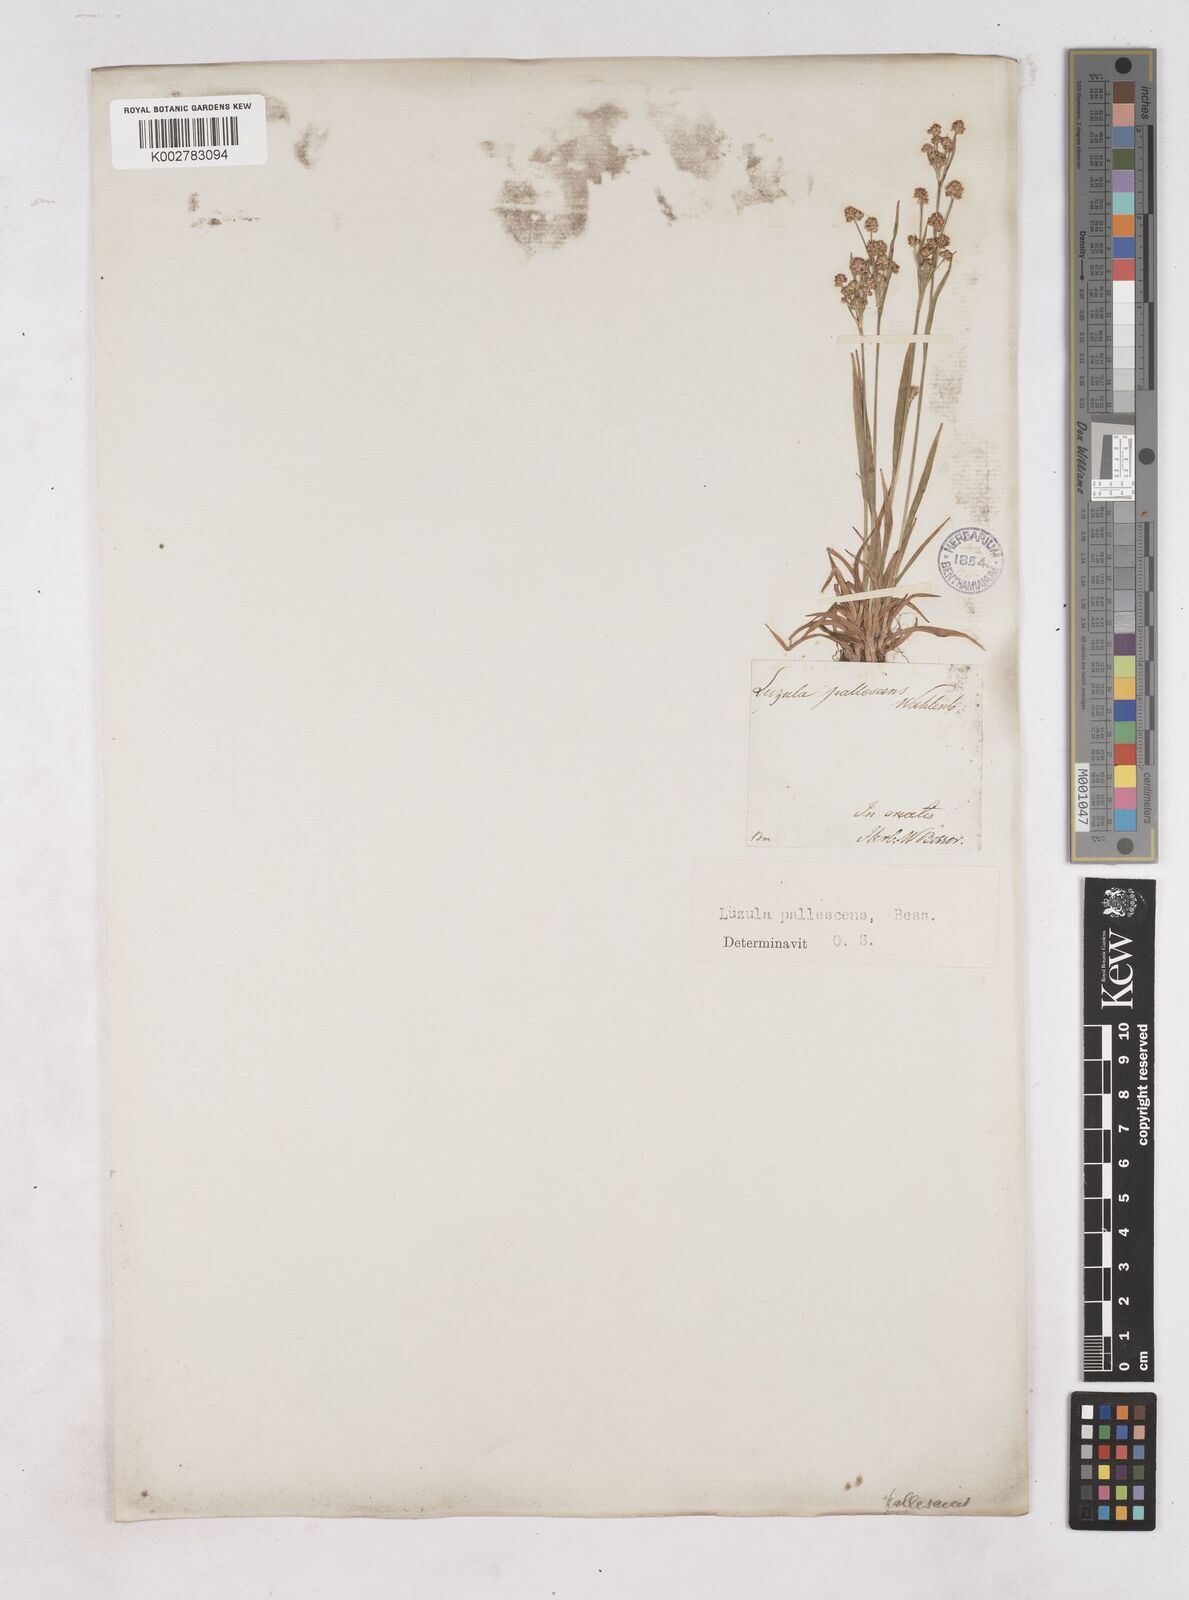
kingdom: Plantae
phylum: Tracheophyta
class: Liliopsida
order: Poales
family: Juncaceae
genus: Luzula
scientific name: Luzula pallescens
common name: Fen wood-rush
